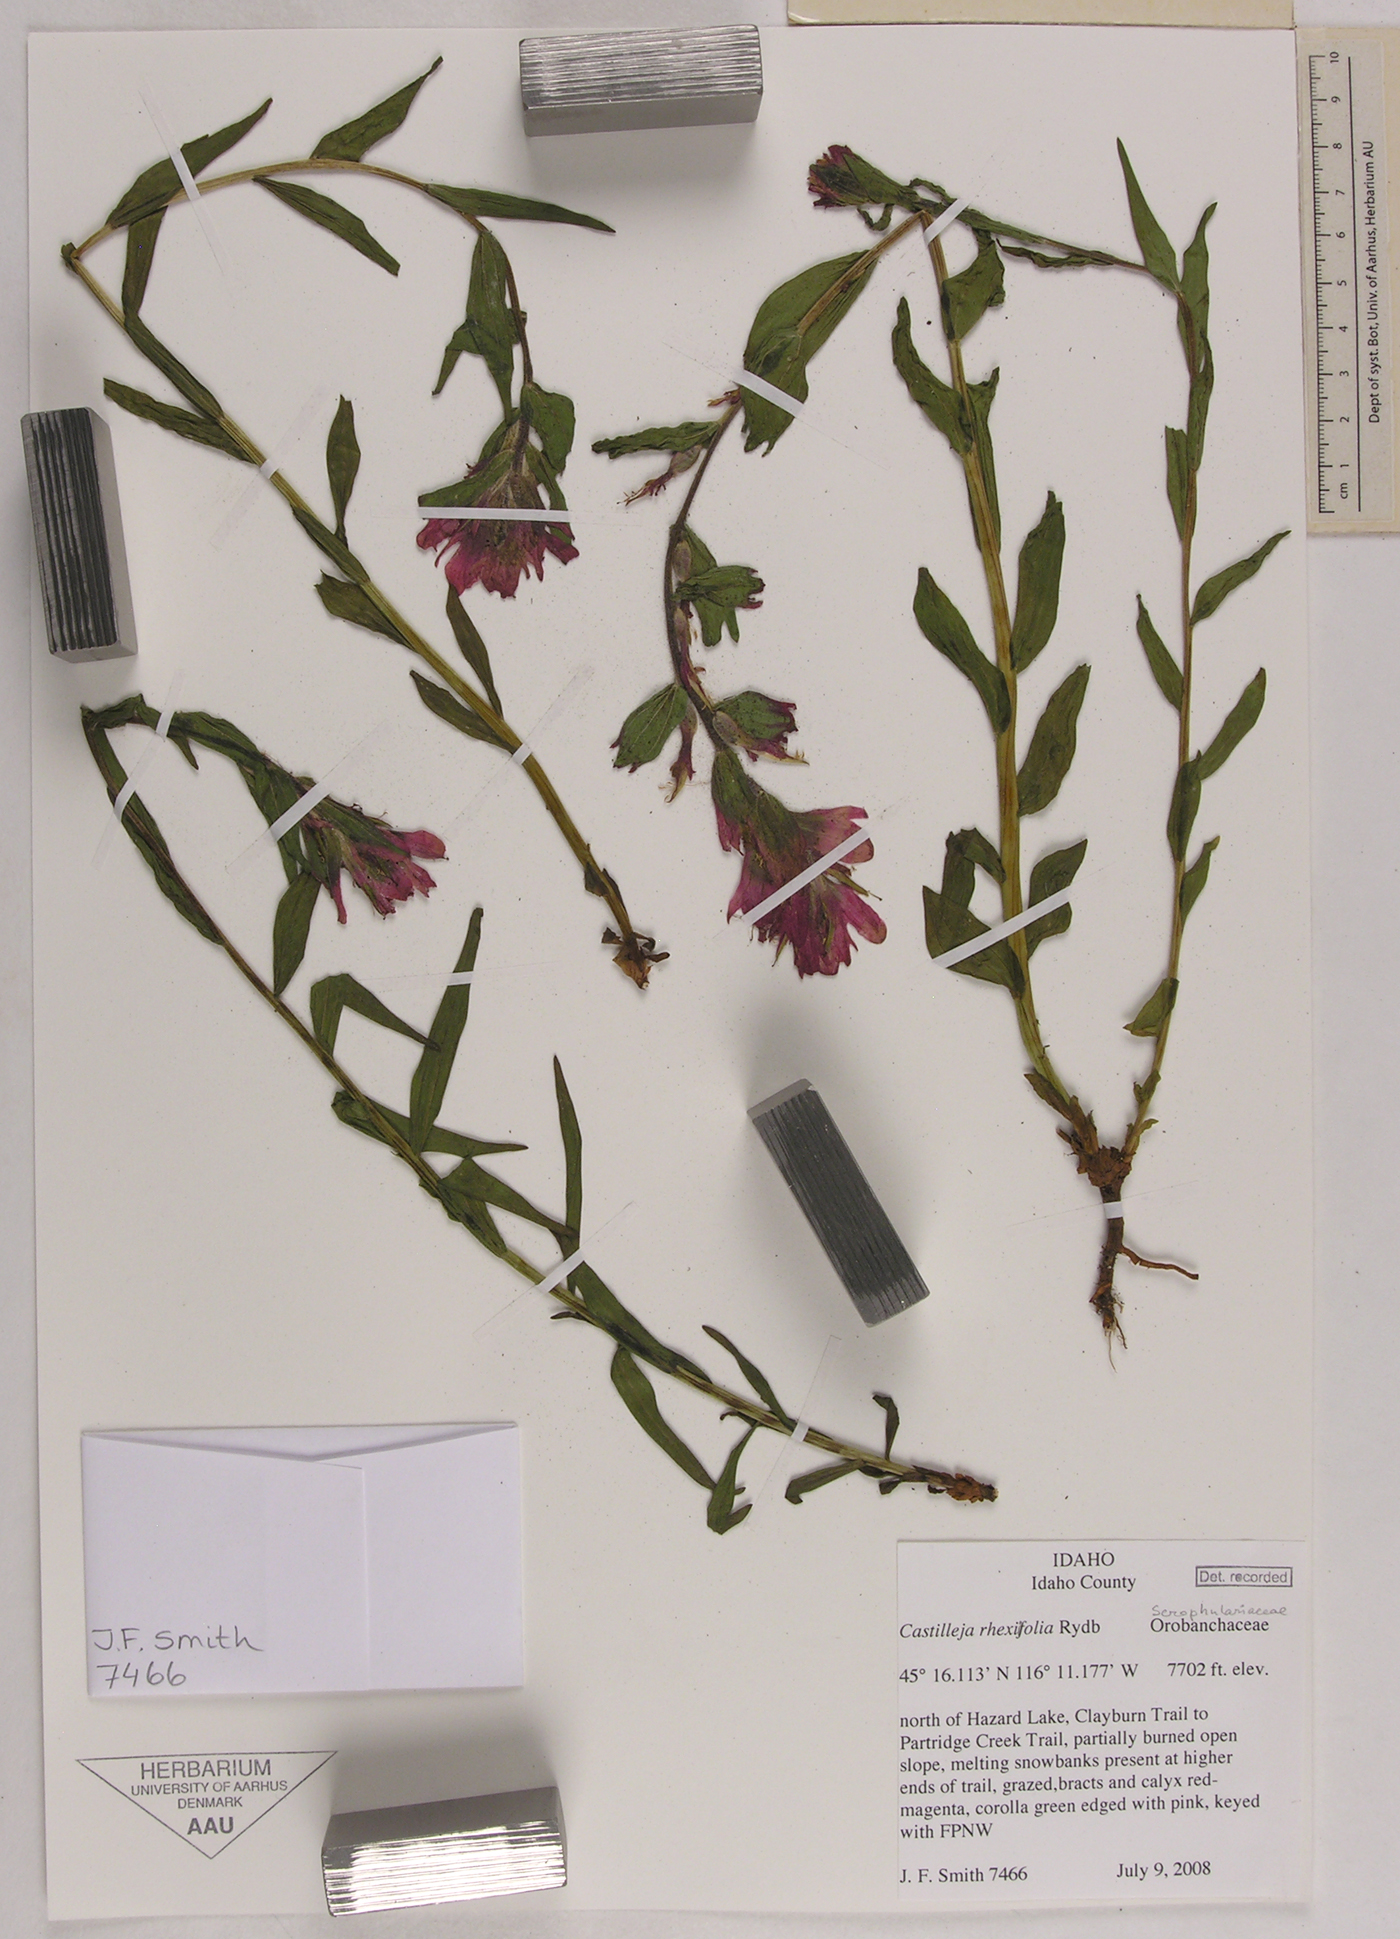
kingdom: Plantae
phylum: Tracheophyta
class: Magnoliopsida
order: Lamiales
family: Orobanchaceae
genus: Castilleja
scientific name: Castilleja rhexifolia
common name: Rocky mountain paintbrush
